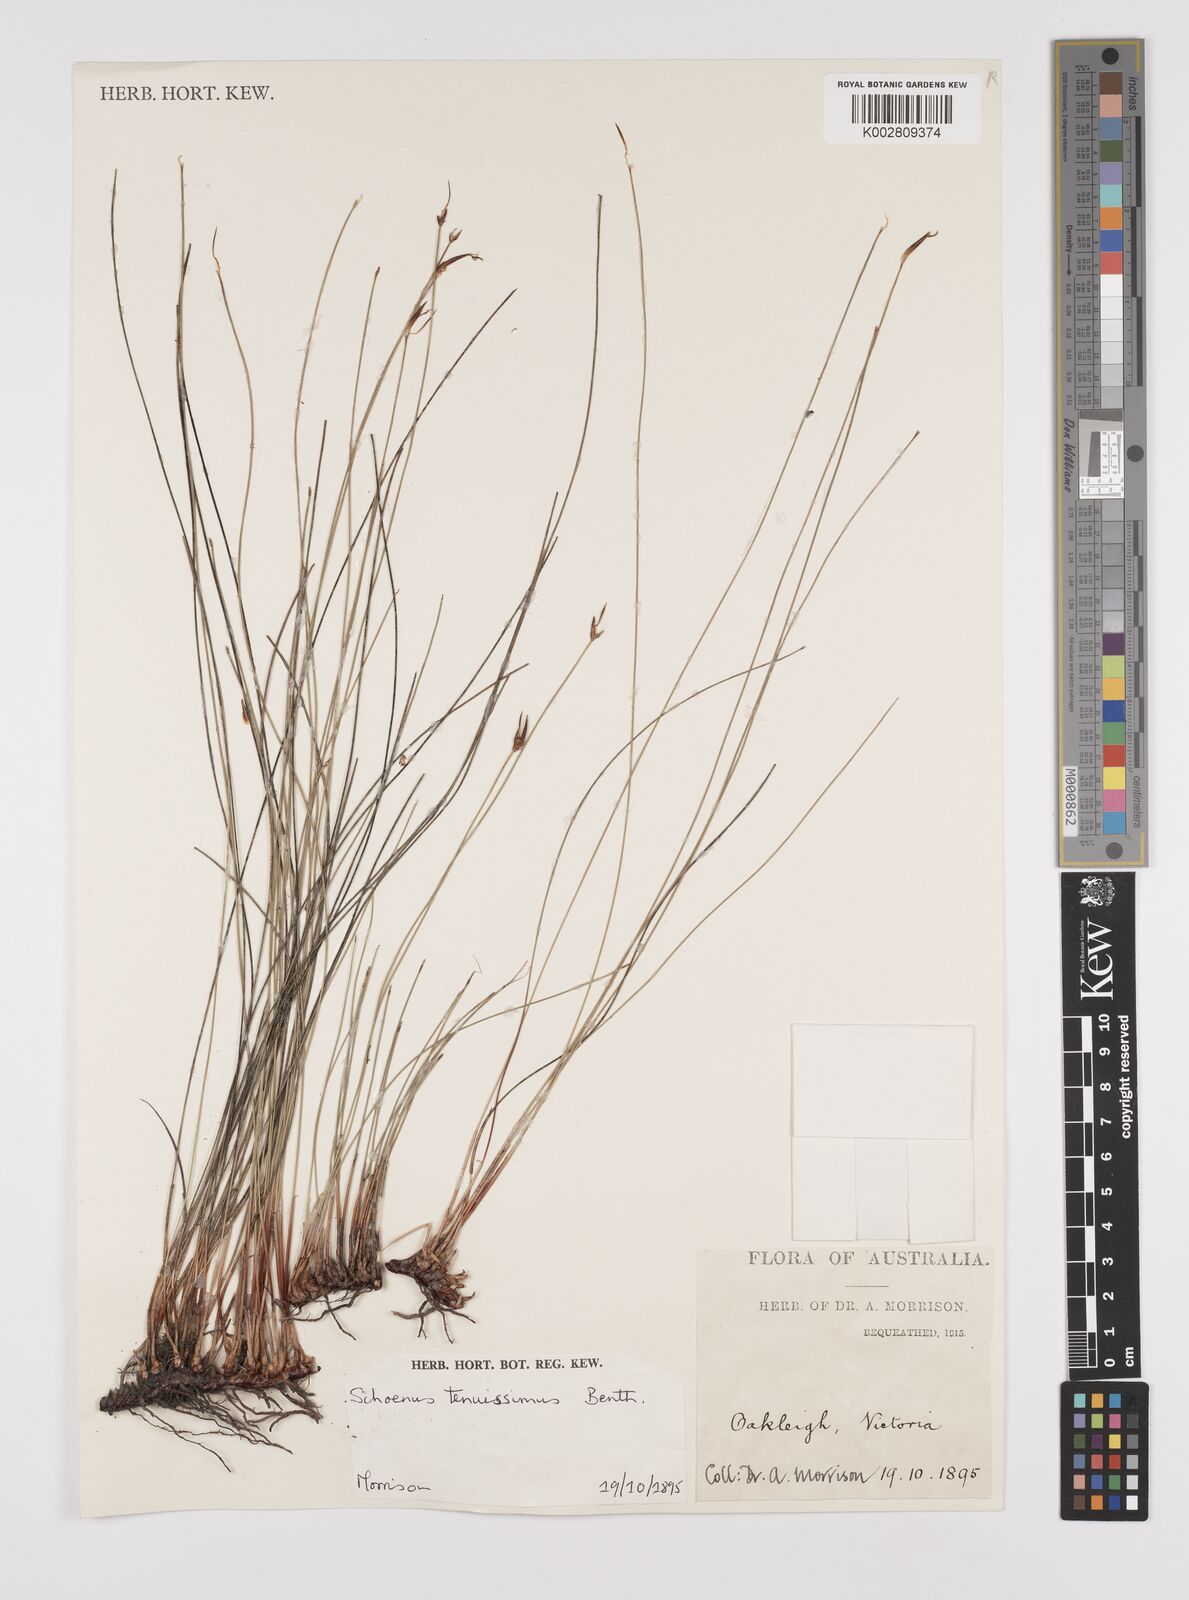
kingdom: Plantae
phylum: Tracheophyta
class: Liliopsida
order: Poales
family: Cyperaceae
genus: Schoenus
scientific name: Schoenus tenuissimus
